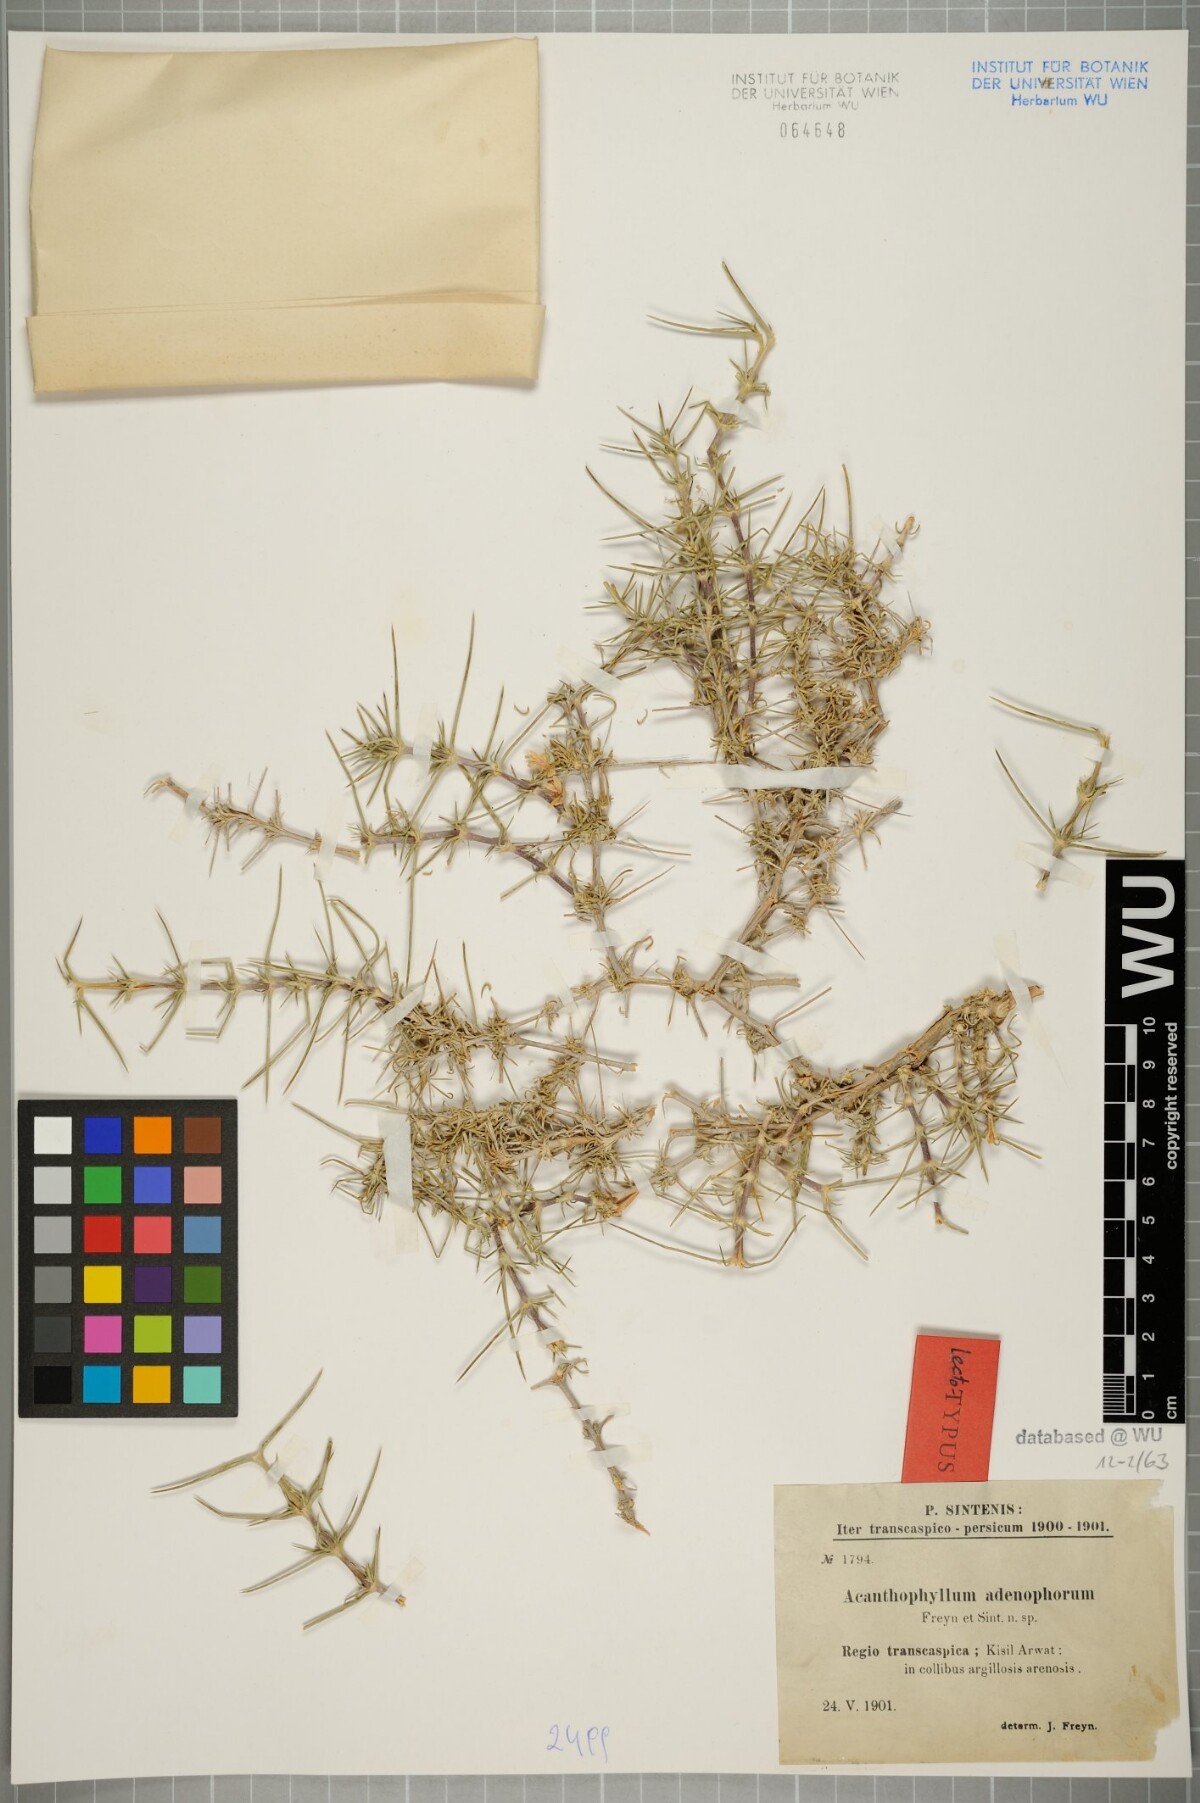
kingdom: Plantae
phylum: Tracheophyta
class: Magnoliopsida
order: Caryophyllales
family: Caryophyllaceae
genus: Acanthophyllum
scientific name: Acanthophyllum adenophorum
